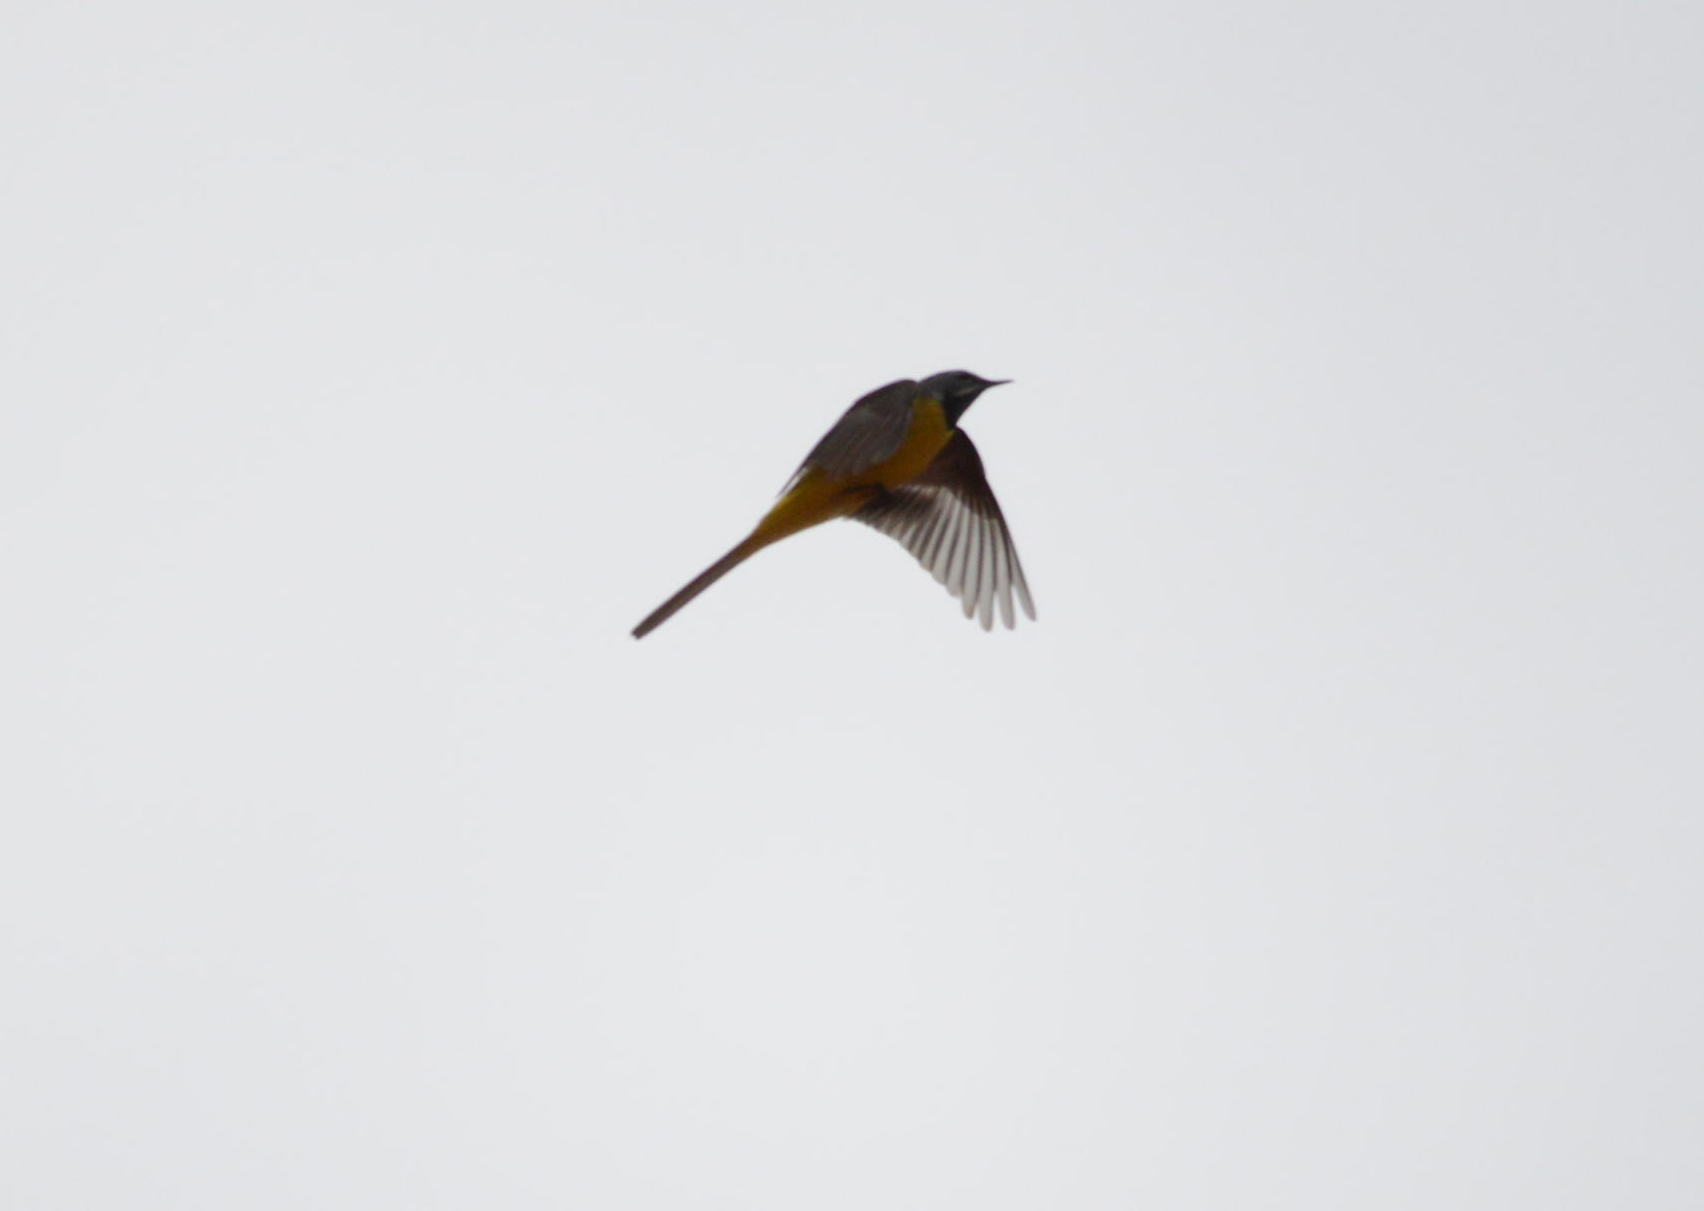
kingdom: Animalia
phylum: Chordata
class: Aves
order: Passeriformes
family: Motacillidae
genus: Motacilla
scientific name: Motacilla cinerea
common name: Grey wagtail
